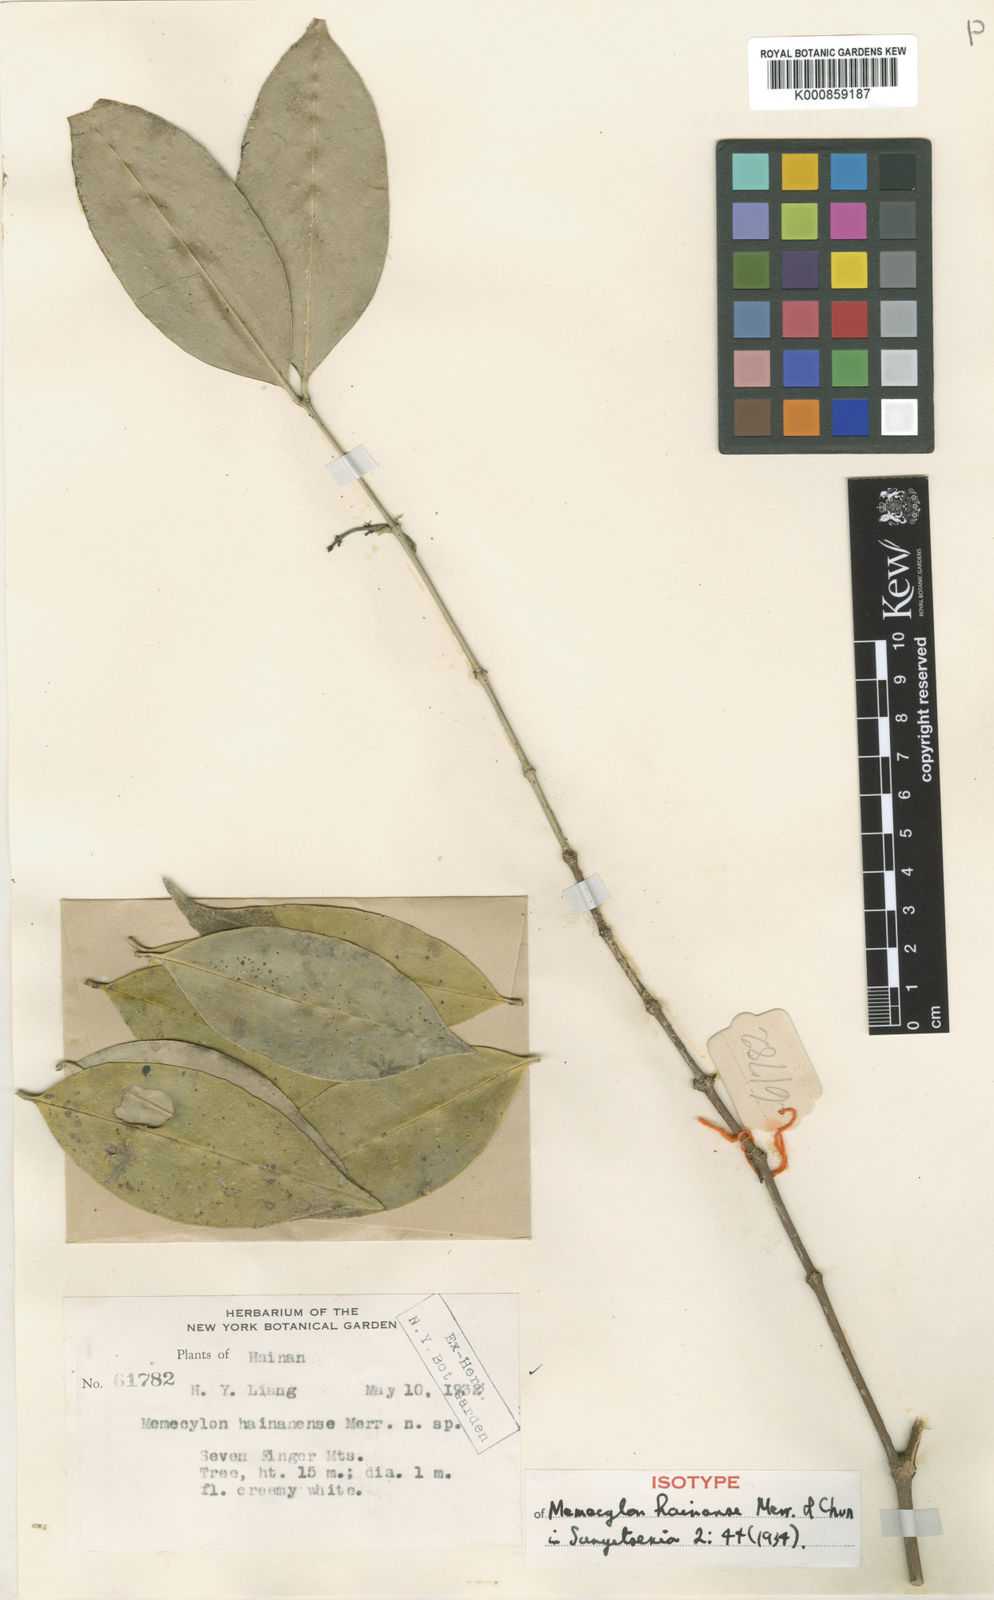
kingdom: Plantae
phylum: Tracheophyta
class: Magnoliopsida
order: Myrtales
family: Melastomataceae
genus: Memecylon
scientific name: Memecylon hainanense
